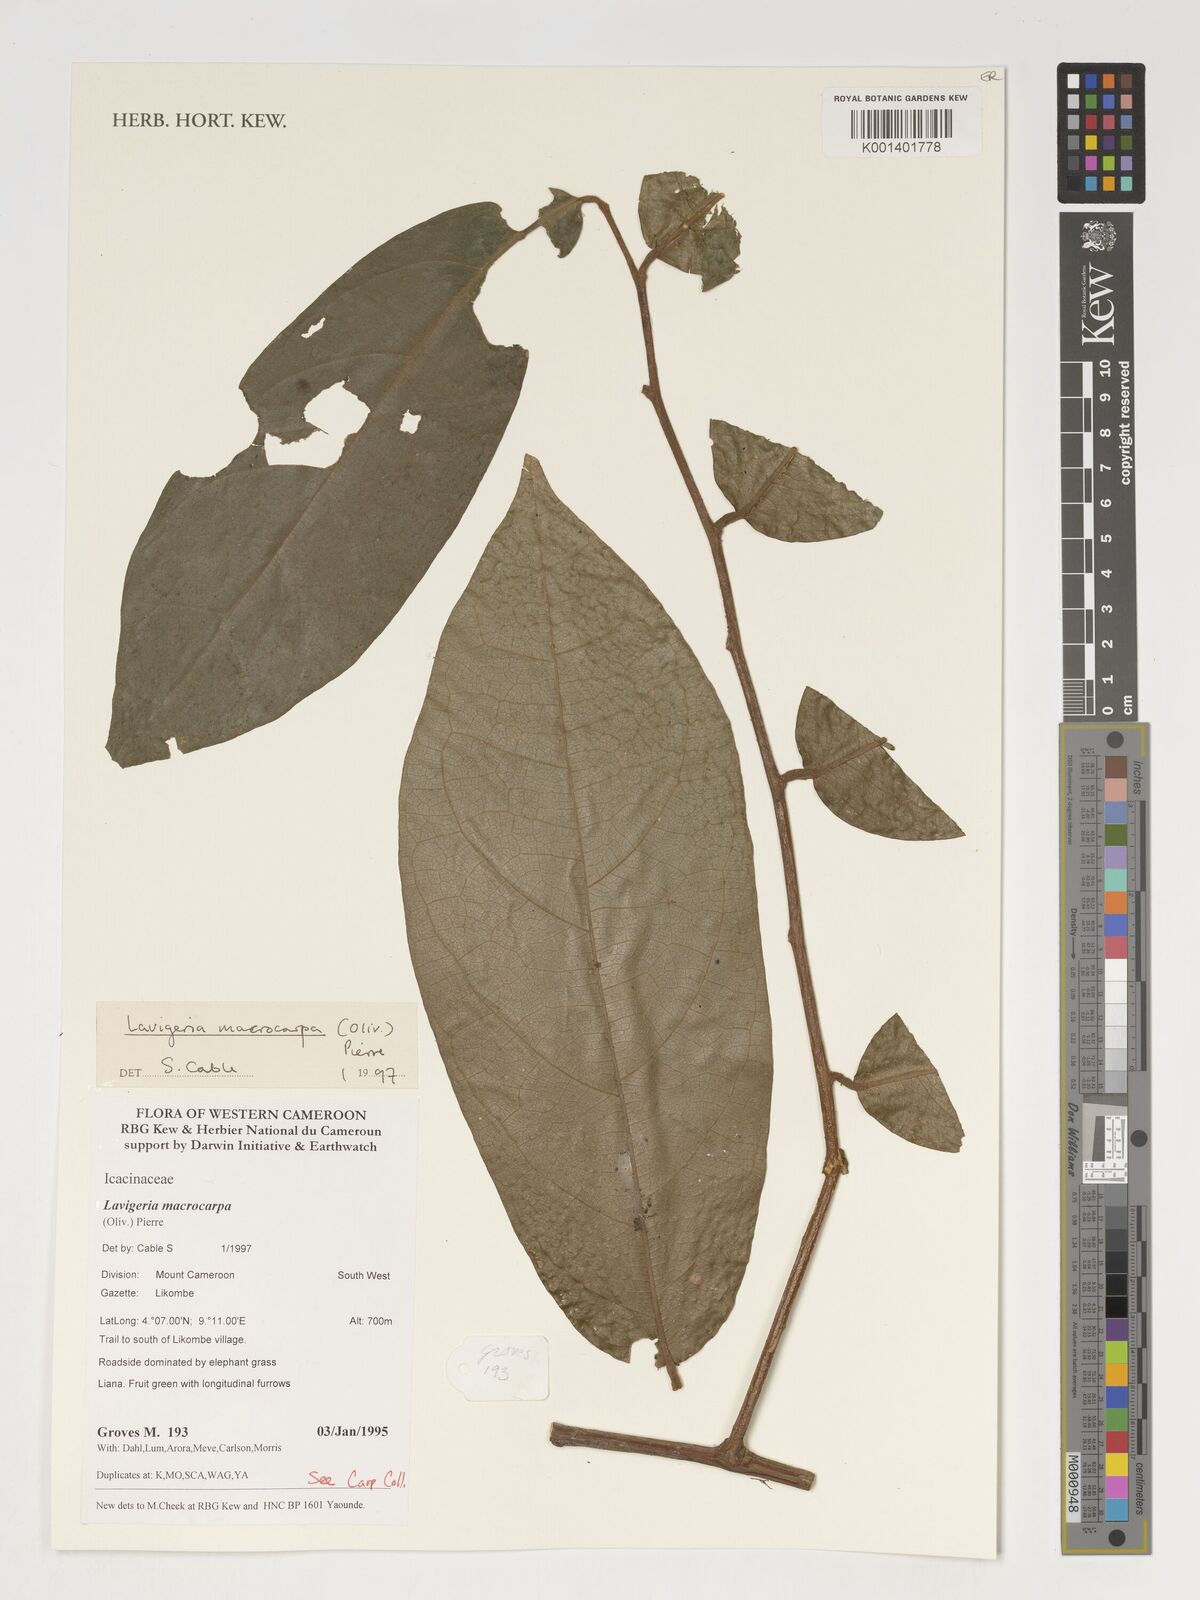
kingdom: Plantae
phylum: Tracheophyta
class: Magnoliopsida
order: Icacinales
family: Icacinaceae
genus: Lavigeria
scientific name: Lavigeria macrocarpa
